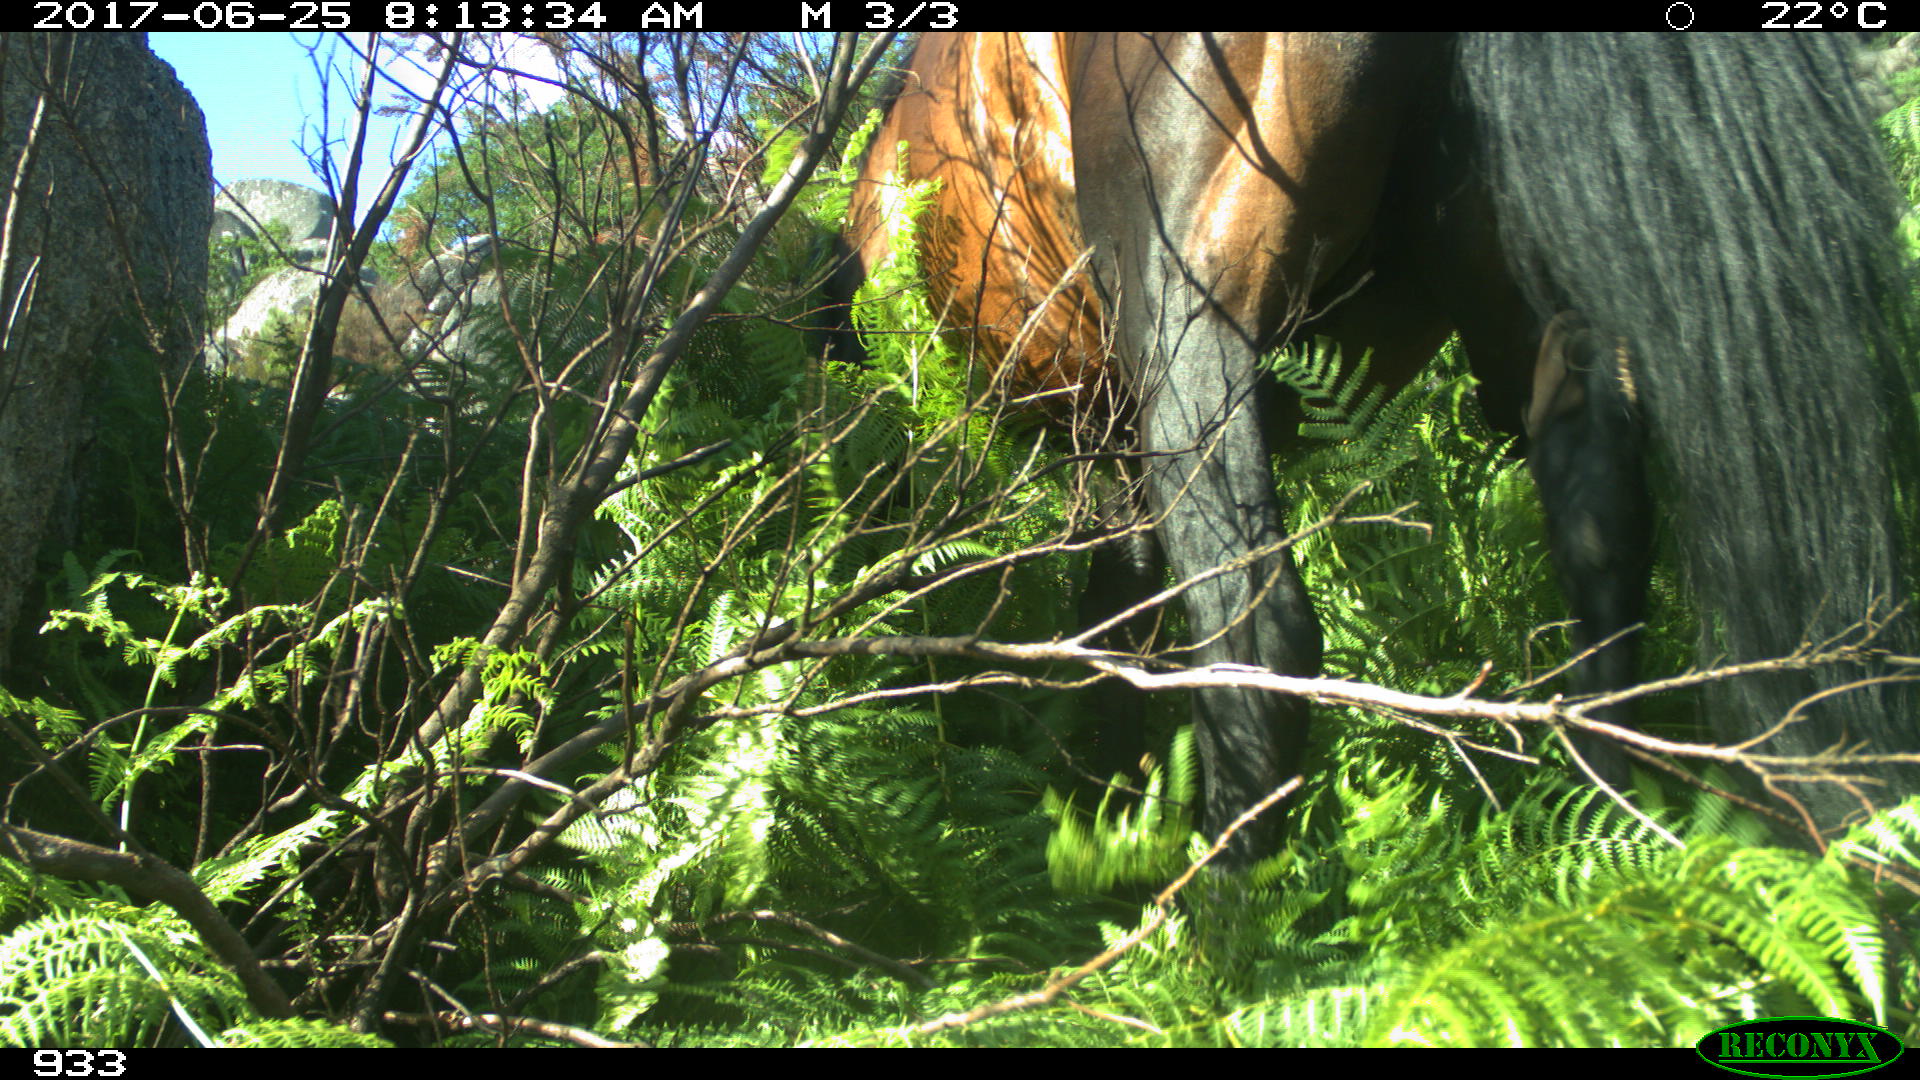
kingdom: Animalia
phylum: Chordata
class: Mammalia
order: Perissodactyla
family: Equidae
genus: Equus
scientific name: Equus caballus
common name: Horse
